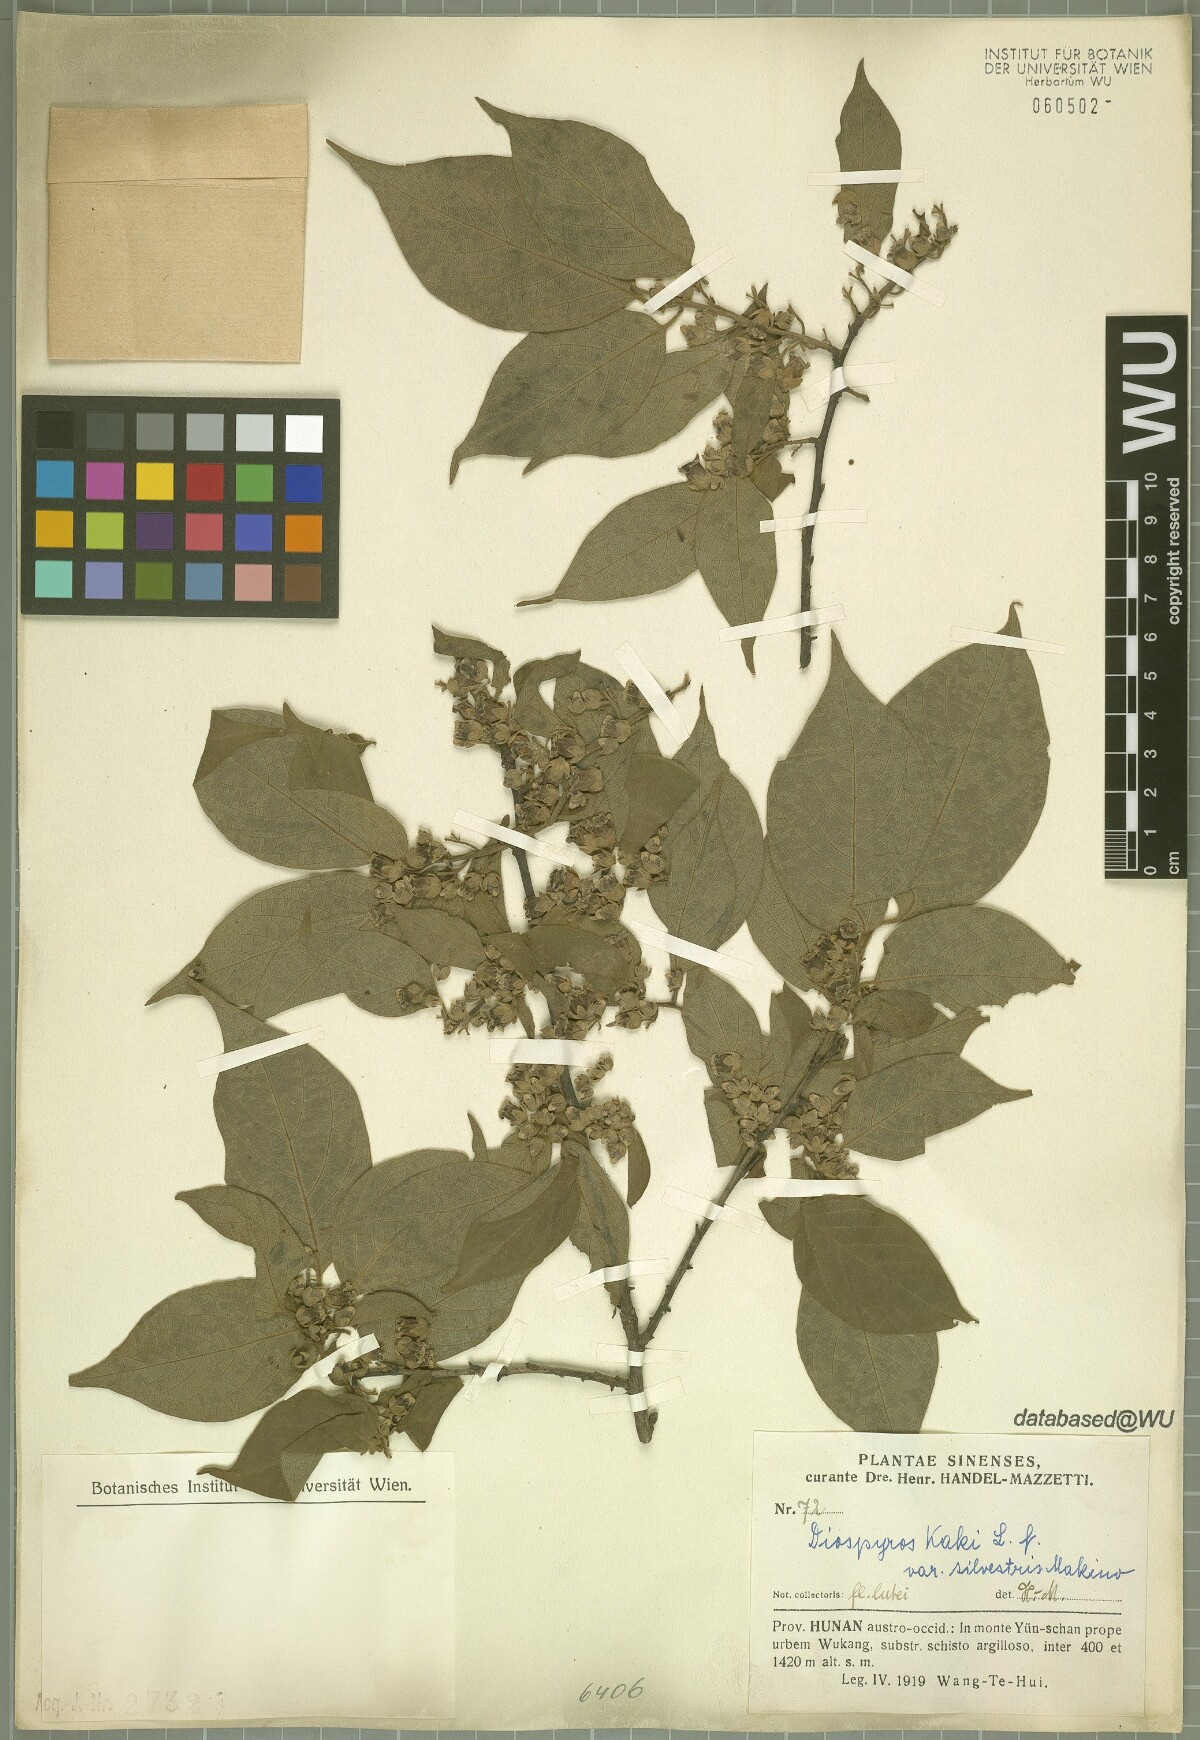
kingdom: Plantae
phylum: Tracheophyta
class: Magnoliopsida
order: Ericales
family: Ebenaceae
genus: Diospyros
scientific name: Diospyros kaki
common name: Persimmon
